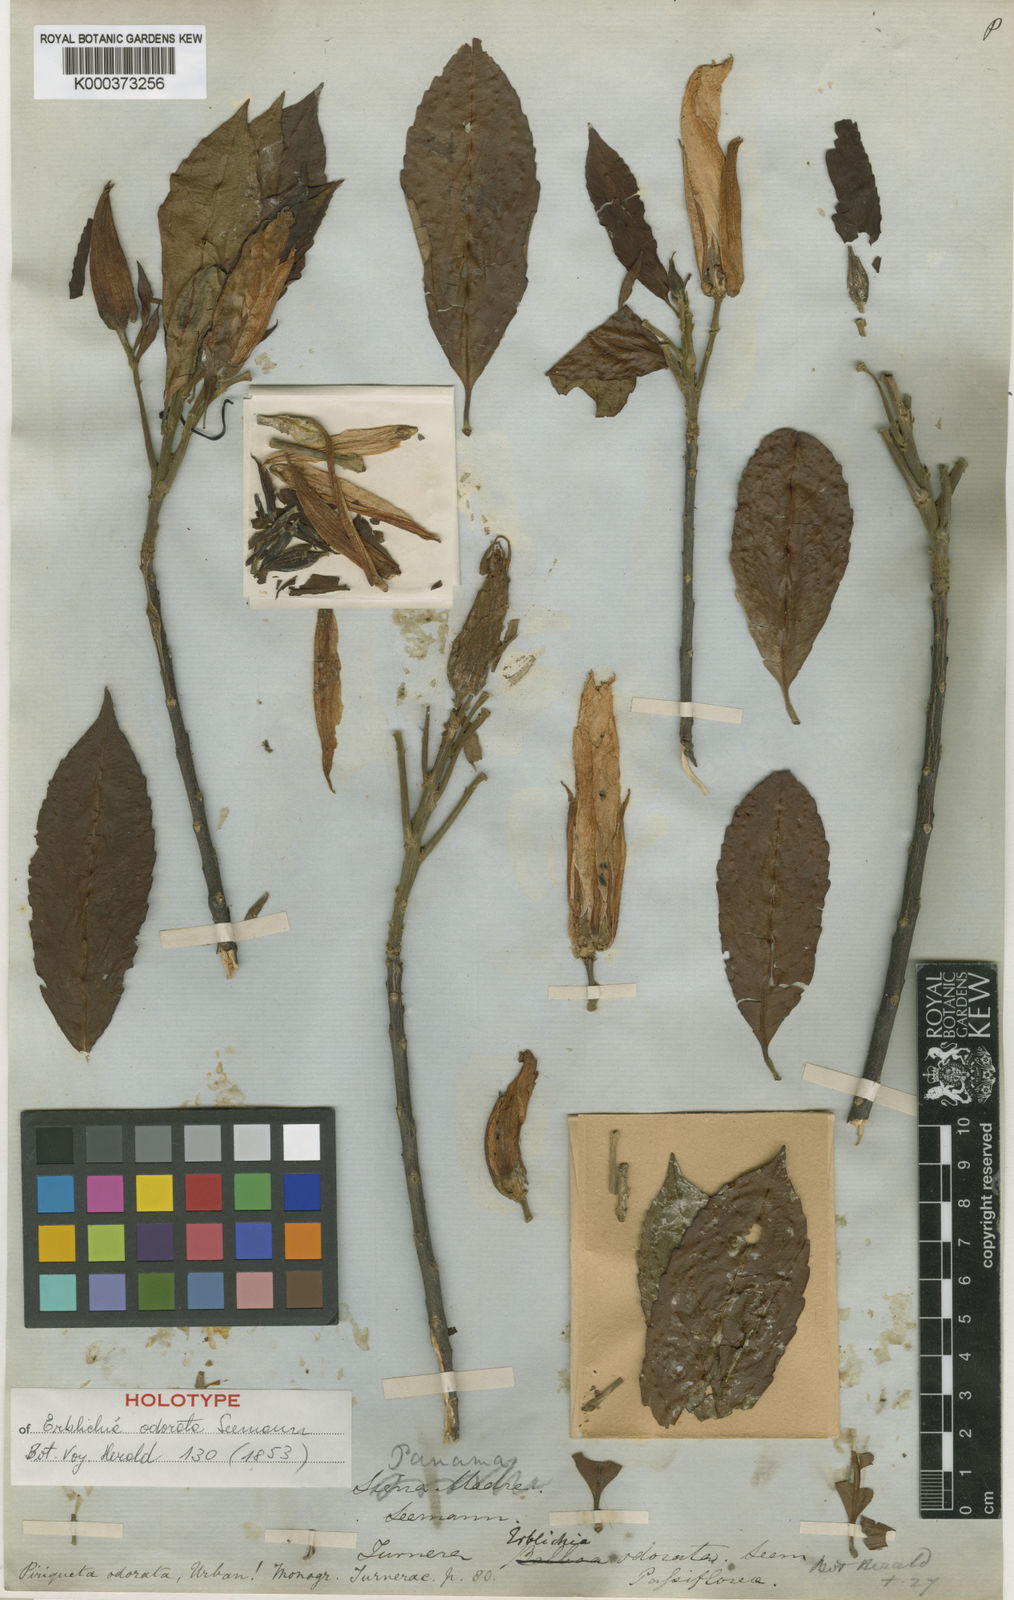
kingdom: Plantae
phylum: Tracheophyta
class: Magnoliopsida
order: Malpighiales
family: Turneraceae
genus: Erblichia
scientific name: Erblichia odorata
